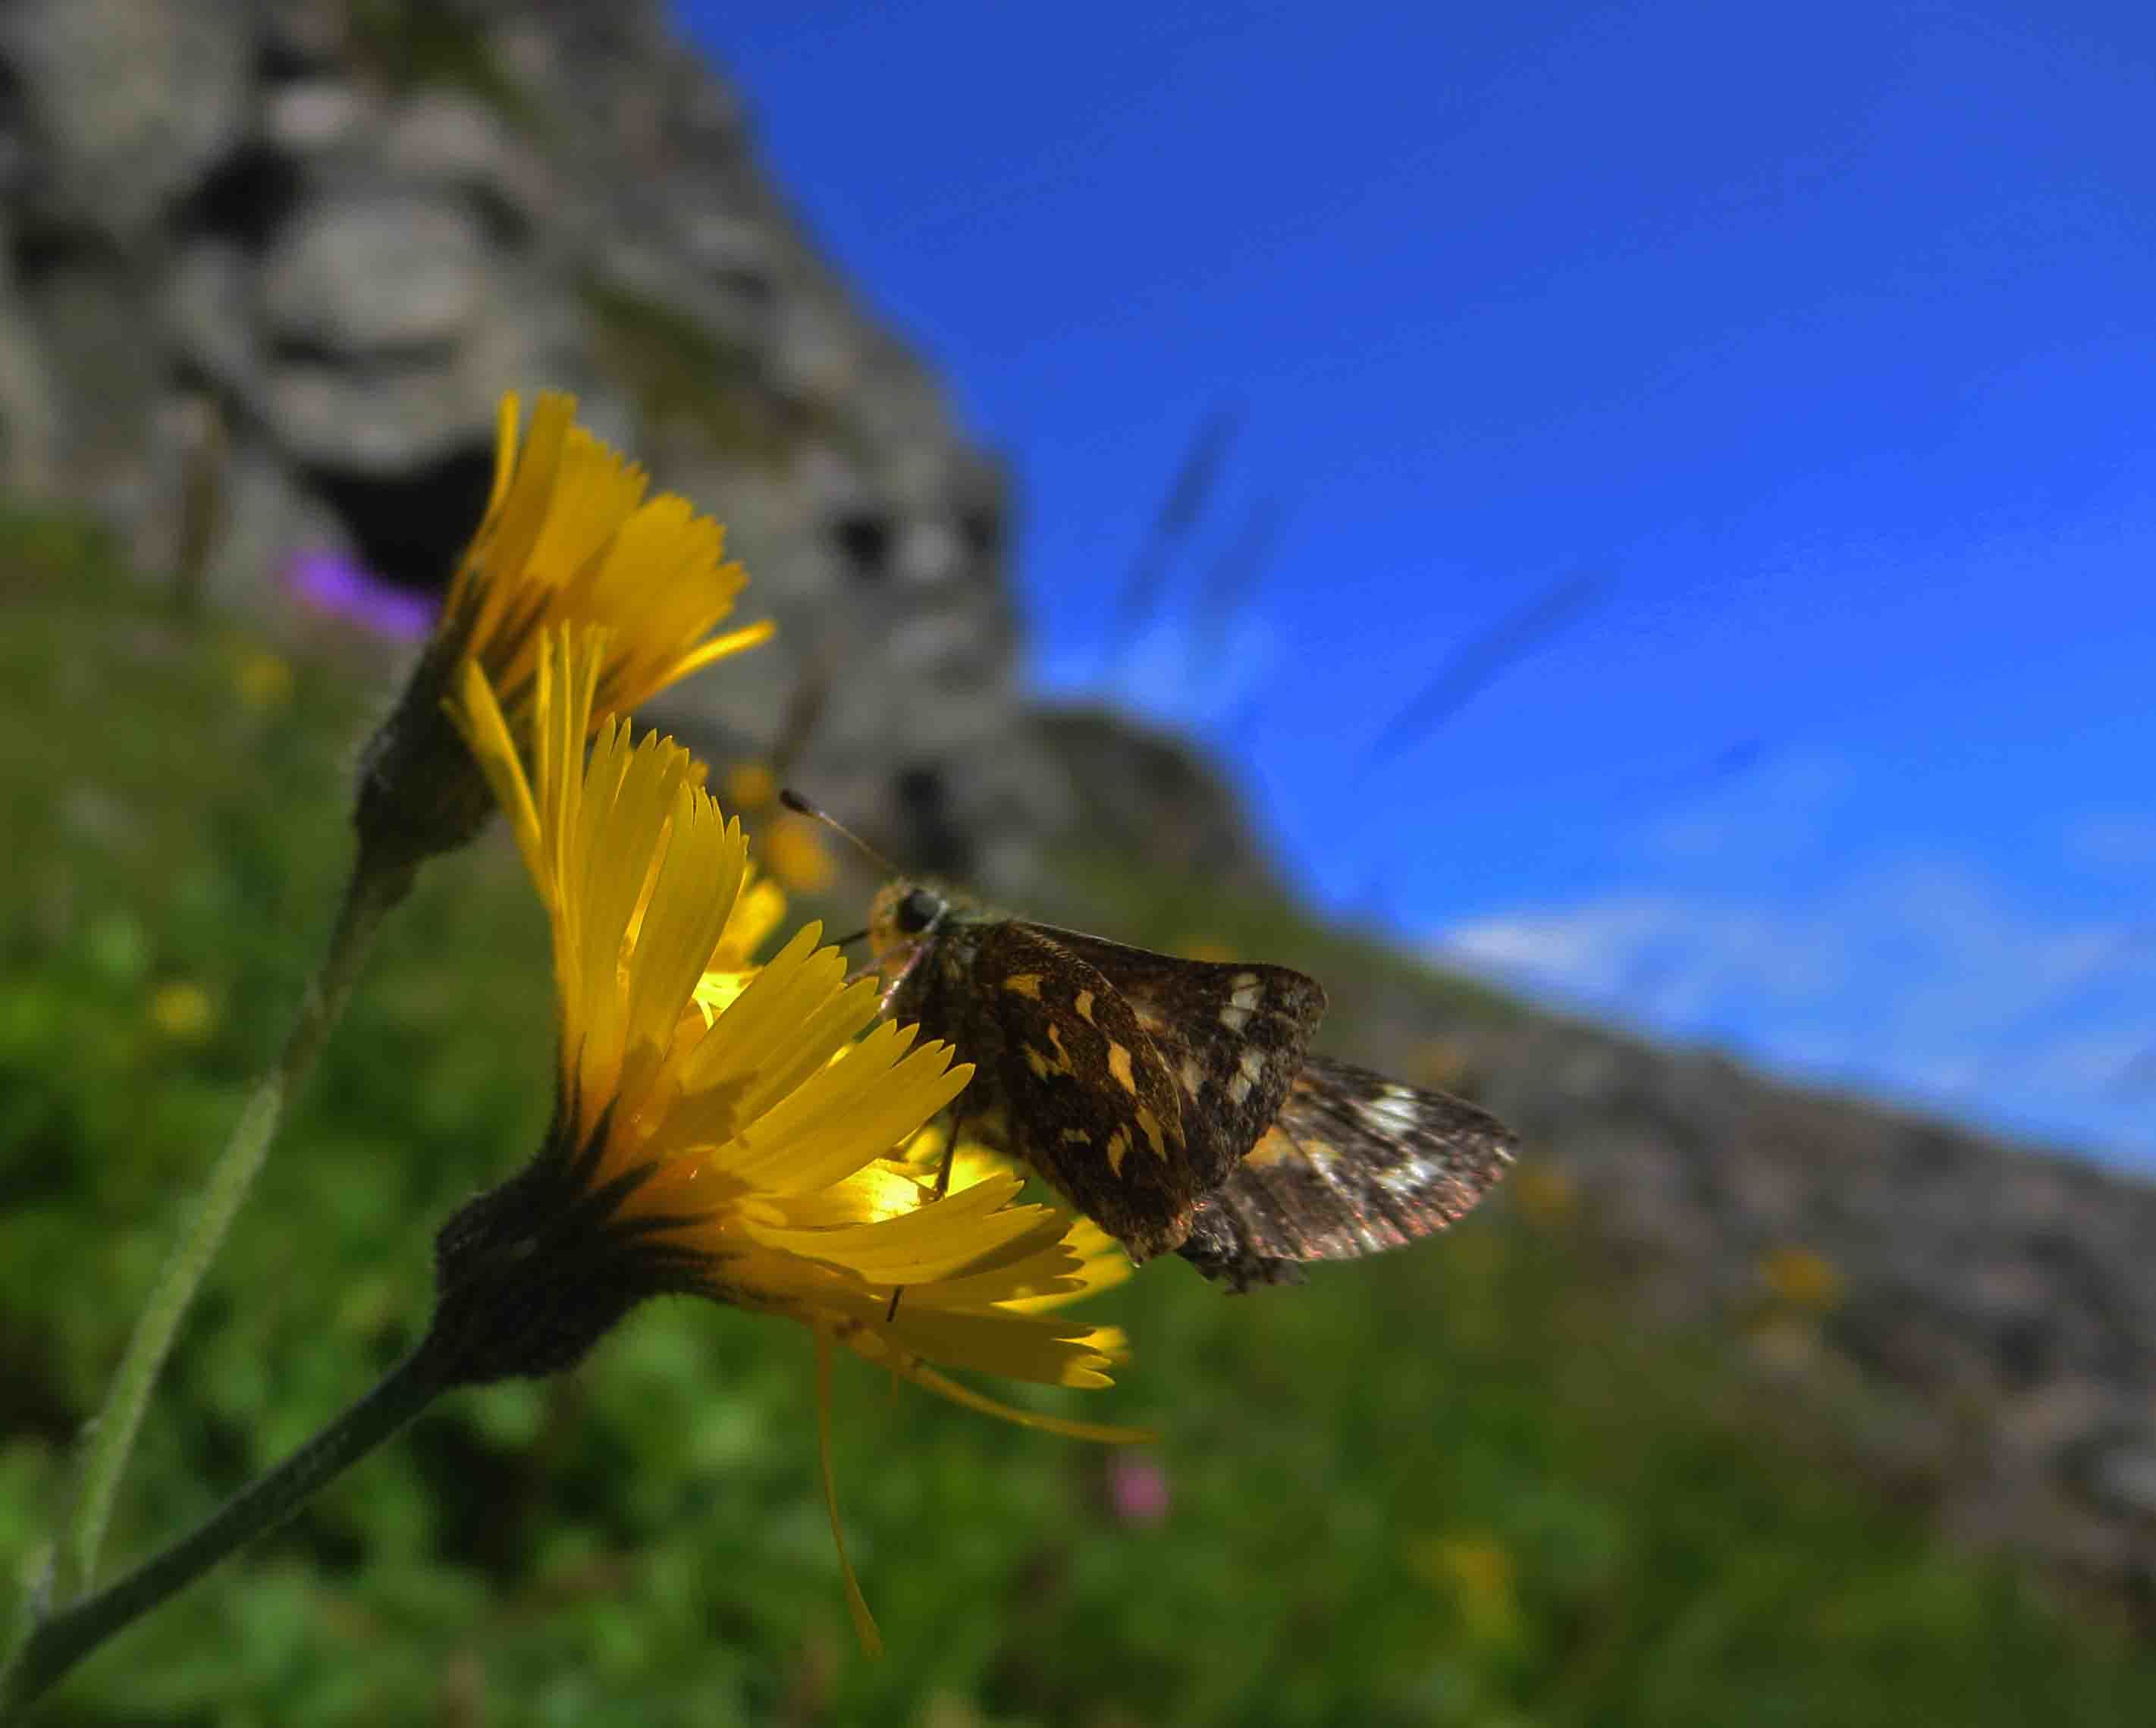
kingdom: Animalia
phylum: Arthropoda
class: Insecta
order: Lepidoptera
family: Hesperiidae
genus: Hesperia
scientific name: Hesperia comma
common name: Common branded skipper
